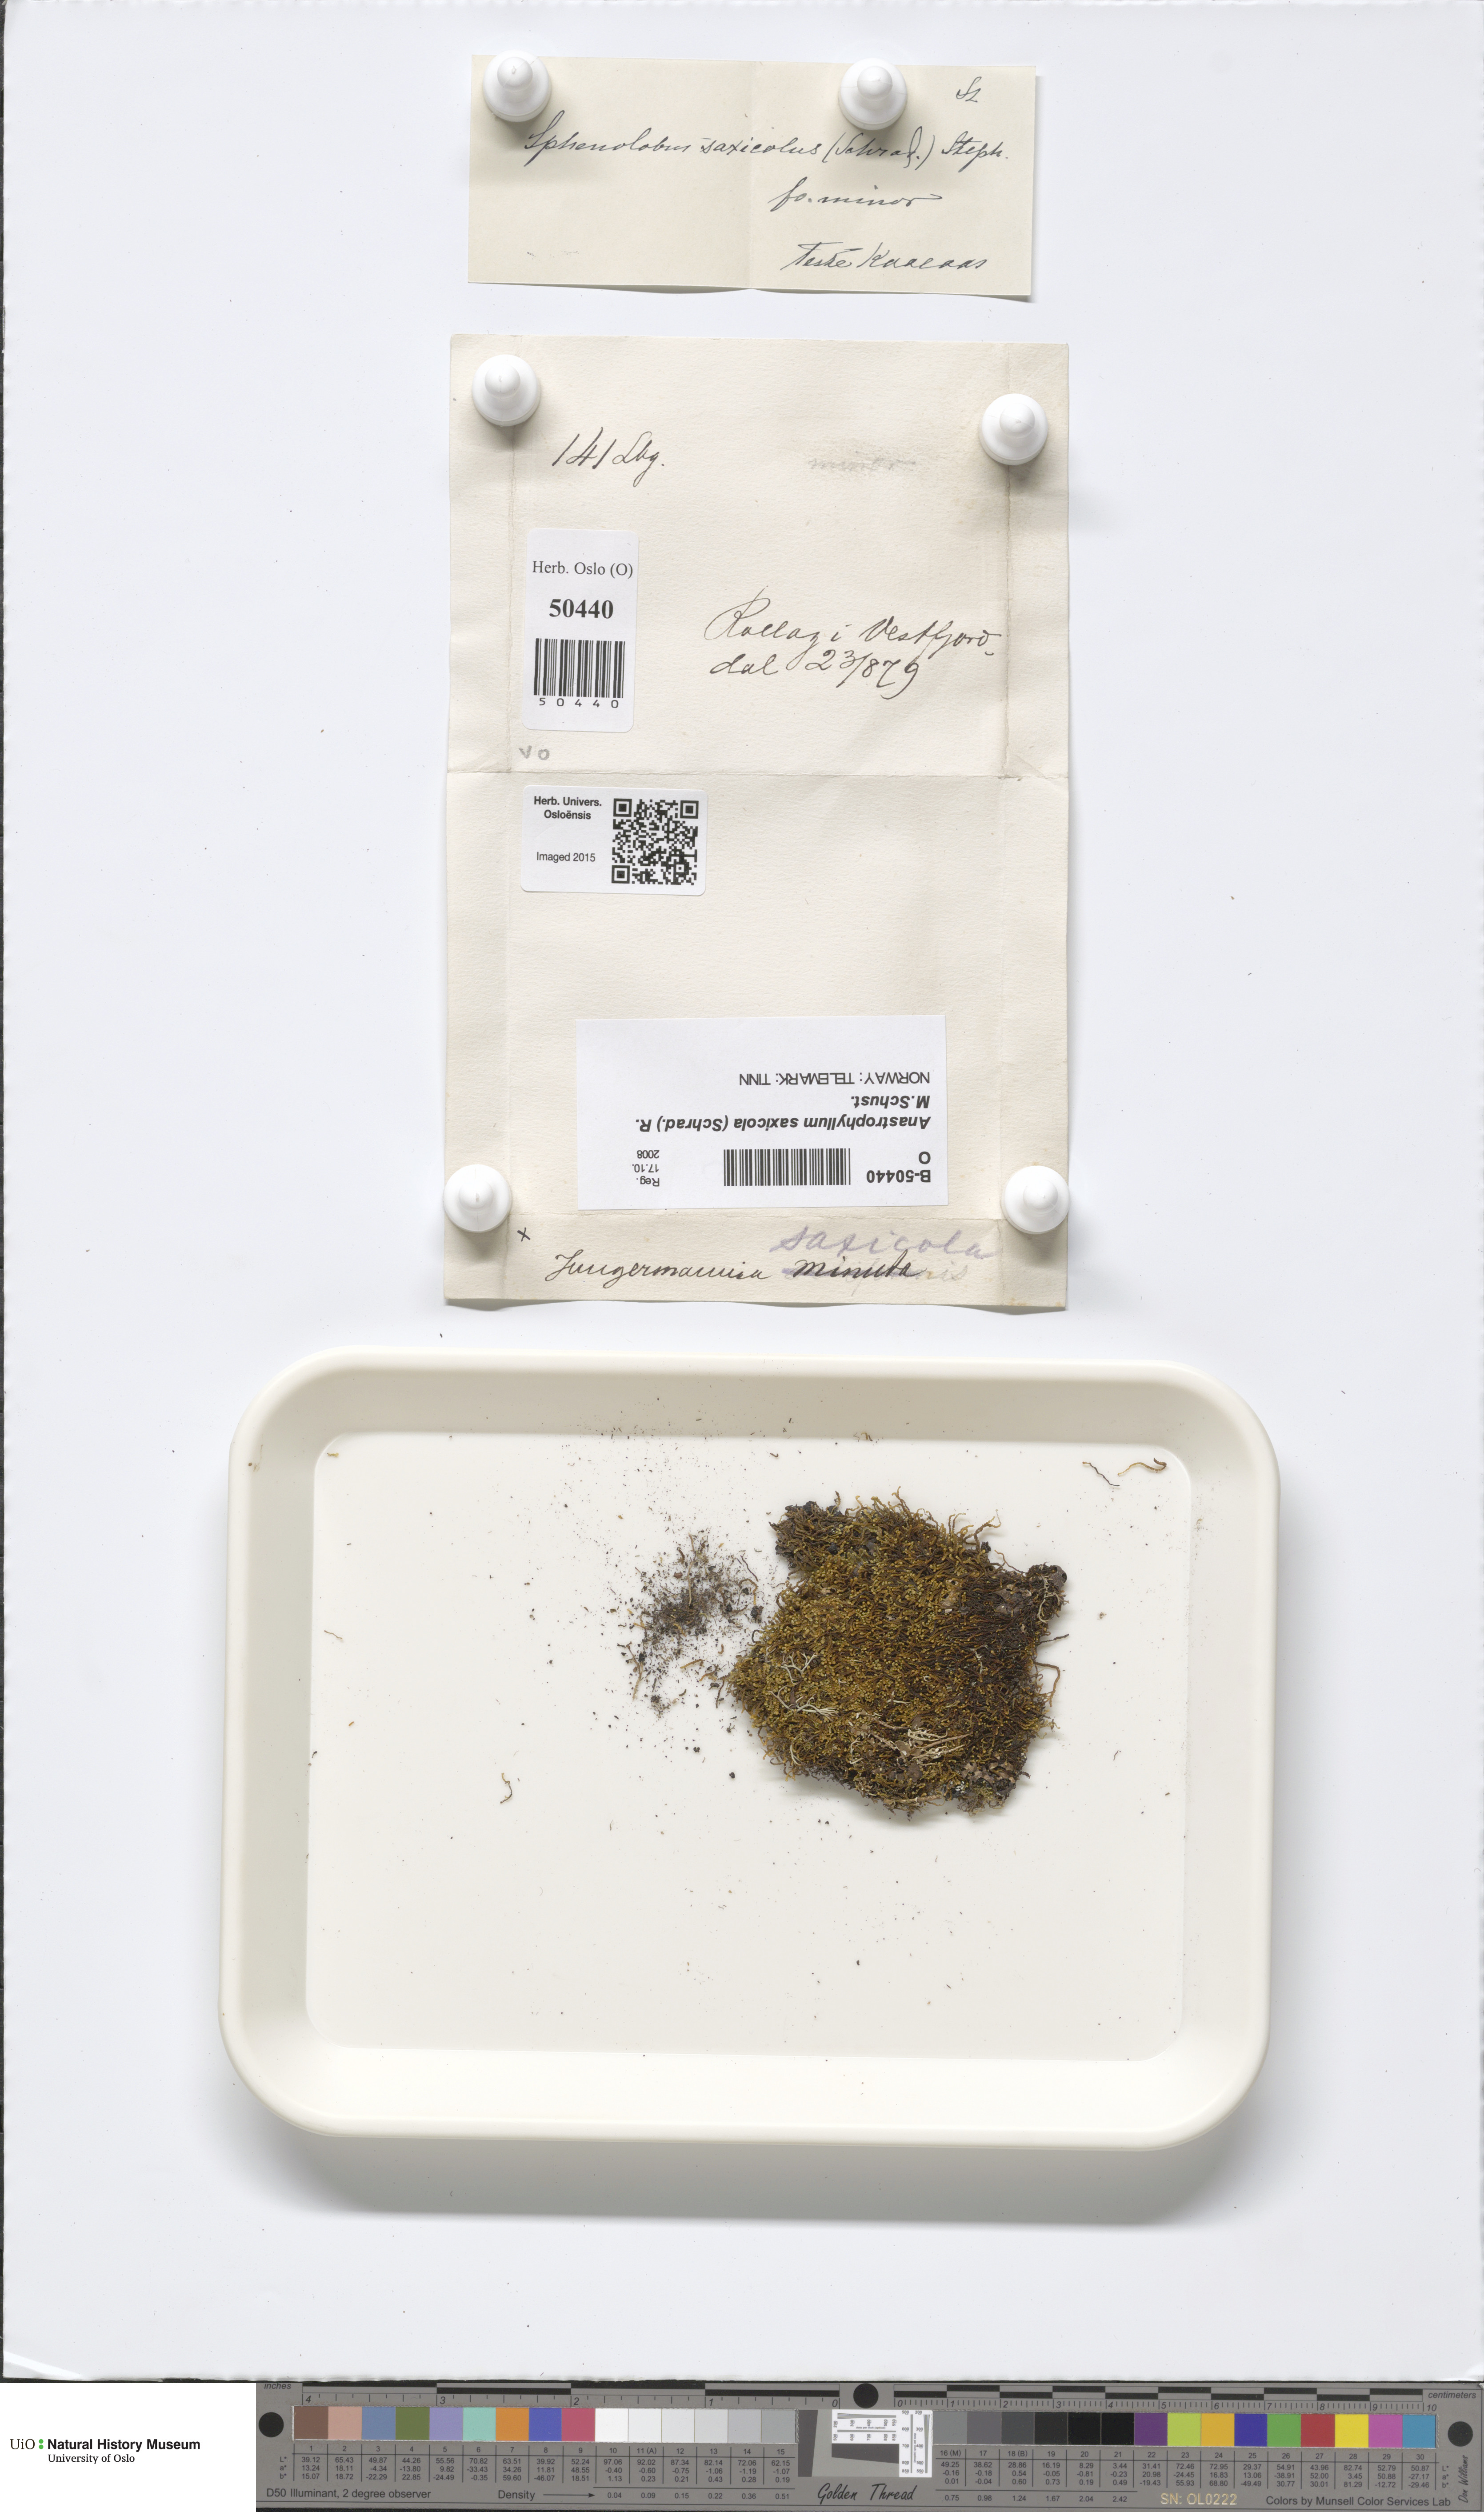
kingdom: Plantae
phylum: Marchantiophyta
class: Jungermanniopsida
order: Jungermanniales
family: Anastrophyllaceae
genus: Sphenolobus
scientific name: Sphenolobus saxicola
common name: Curled notchwort
